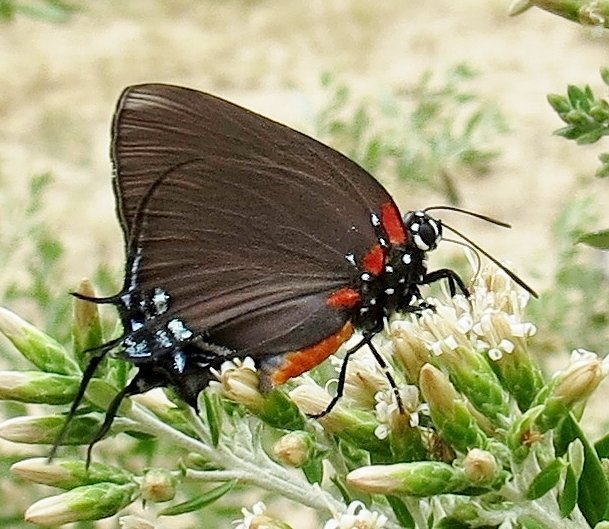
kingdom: Animalia
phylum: Arthropoda
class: Insecta
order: Lepidoptera
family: Lycaenidae
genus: Atlides
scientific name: Atlides halesus
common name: Great Purple Hairstreak
